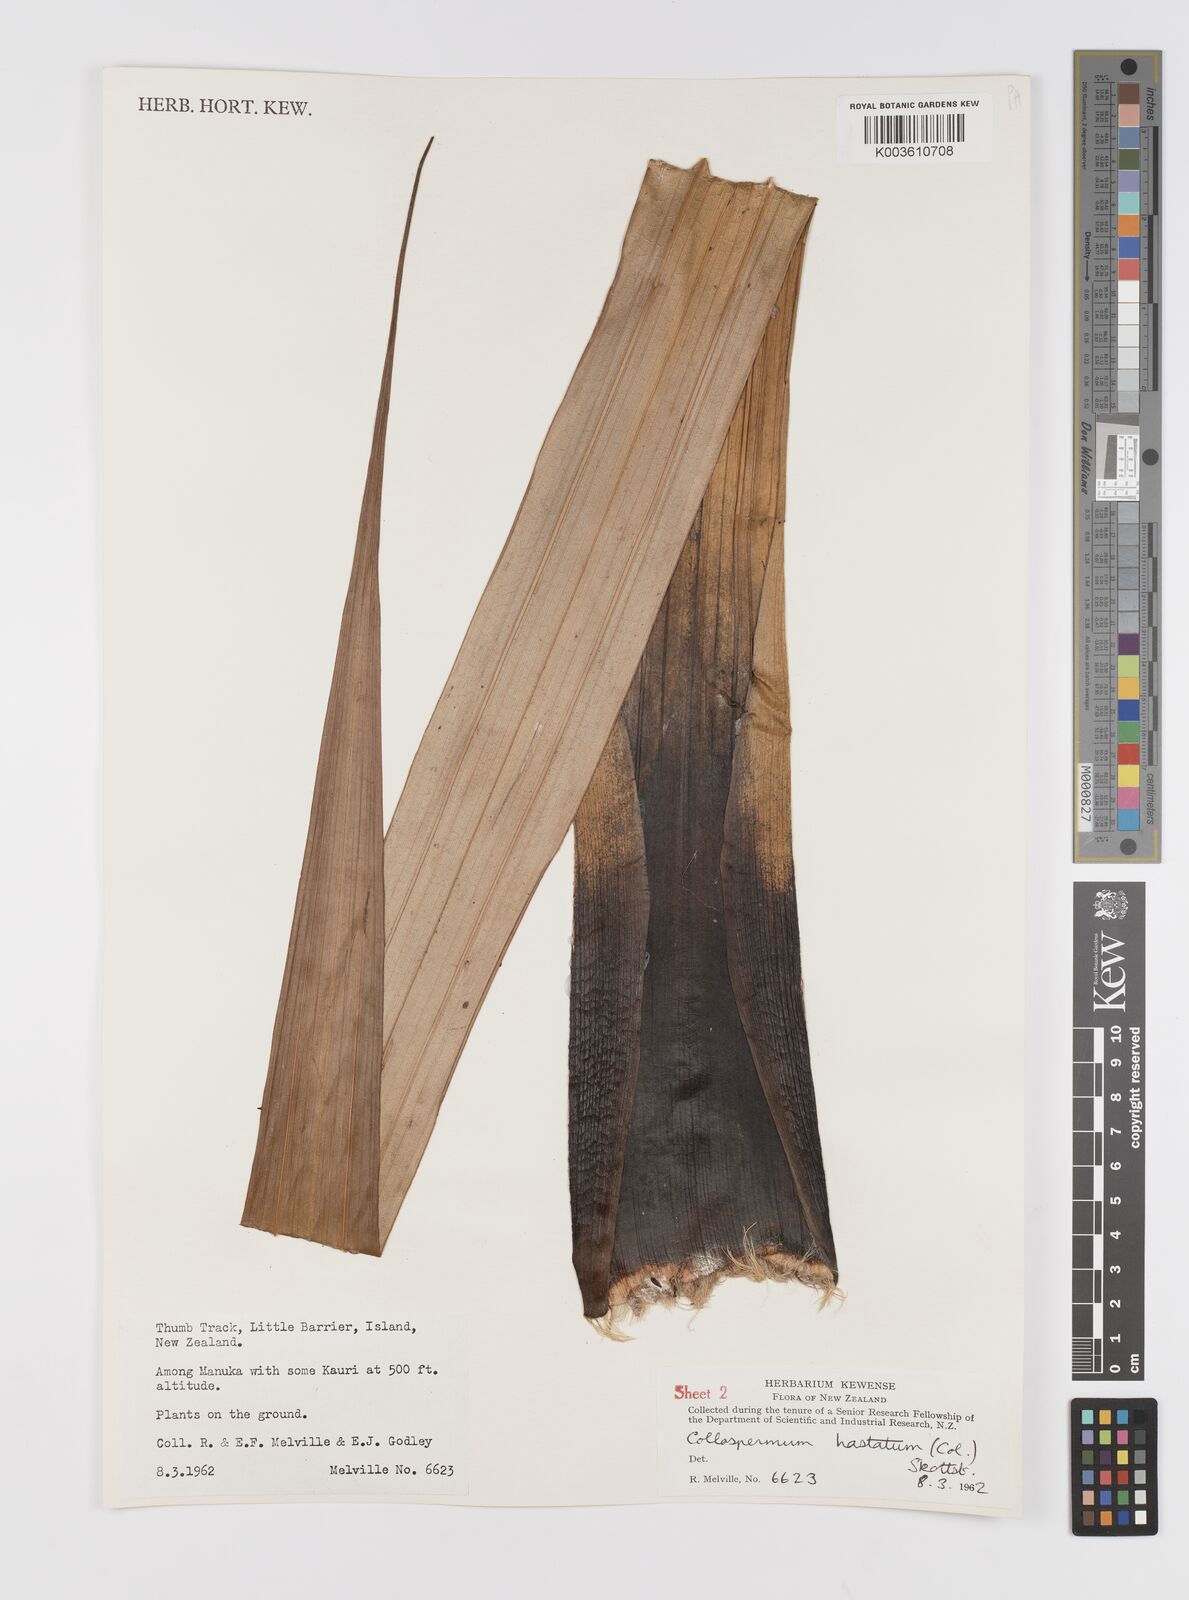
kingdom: Plantae
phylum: Tracheophyta
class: Liliopsida
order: Asparagales
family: Asteliaceae
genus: Astelia
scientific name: Astelia hastata
